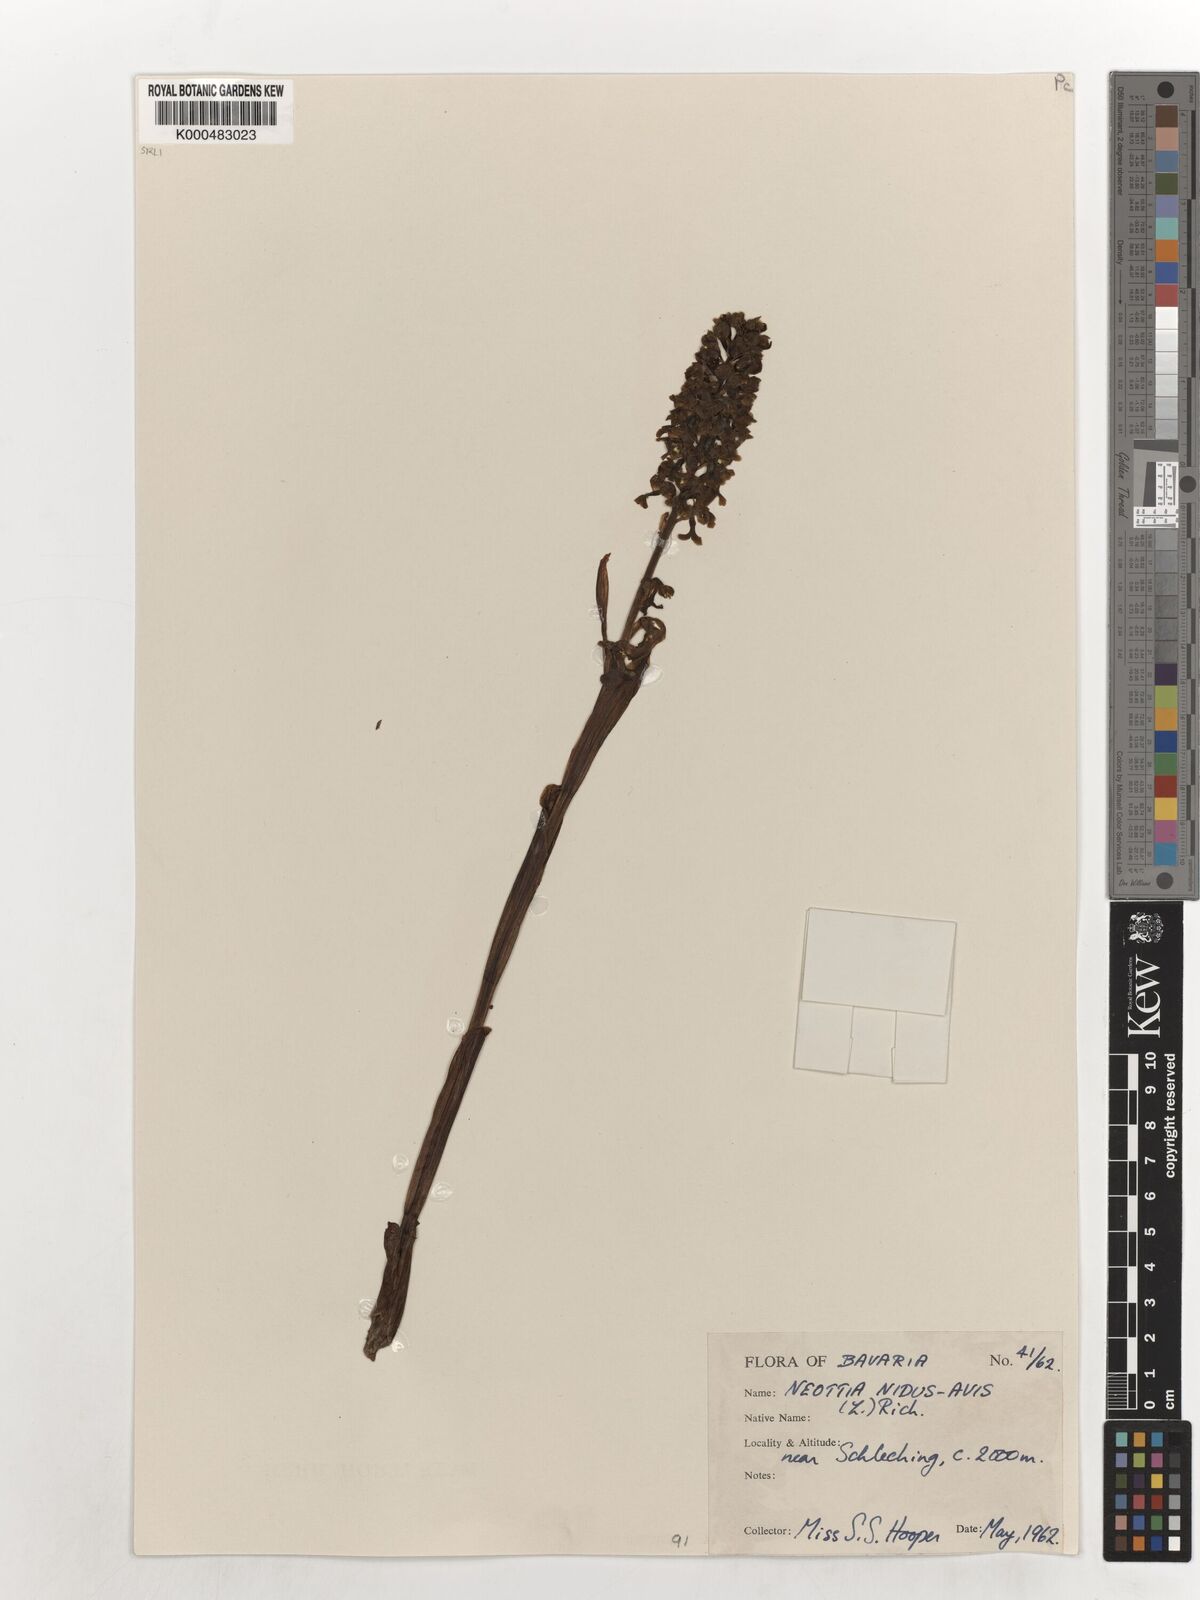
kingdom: Plantae
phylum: Tracheophyta
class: Liliopsida
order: Asparagales
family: Orchidaceae
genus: Neottia
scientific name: Neottia nidus-avis
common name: Bird's-nest orchid
